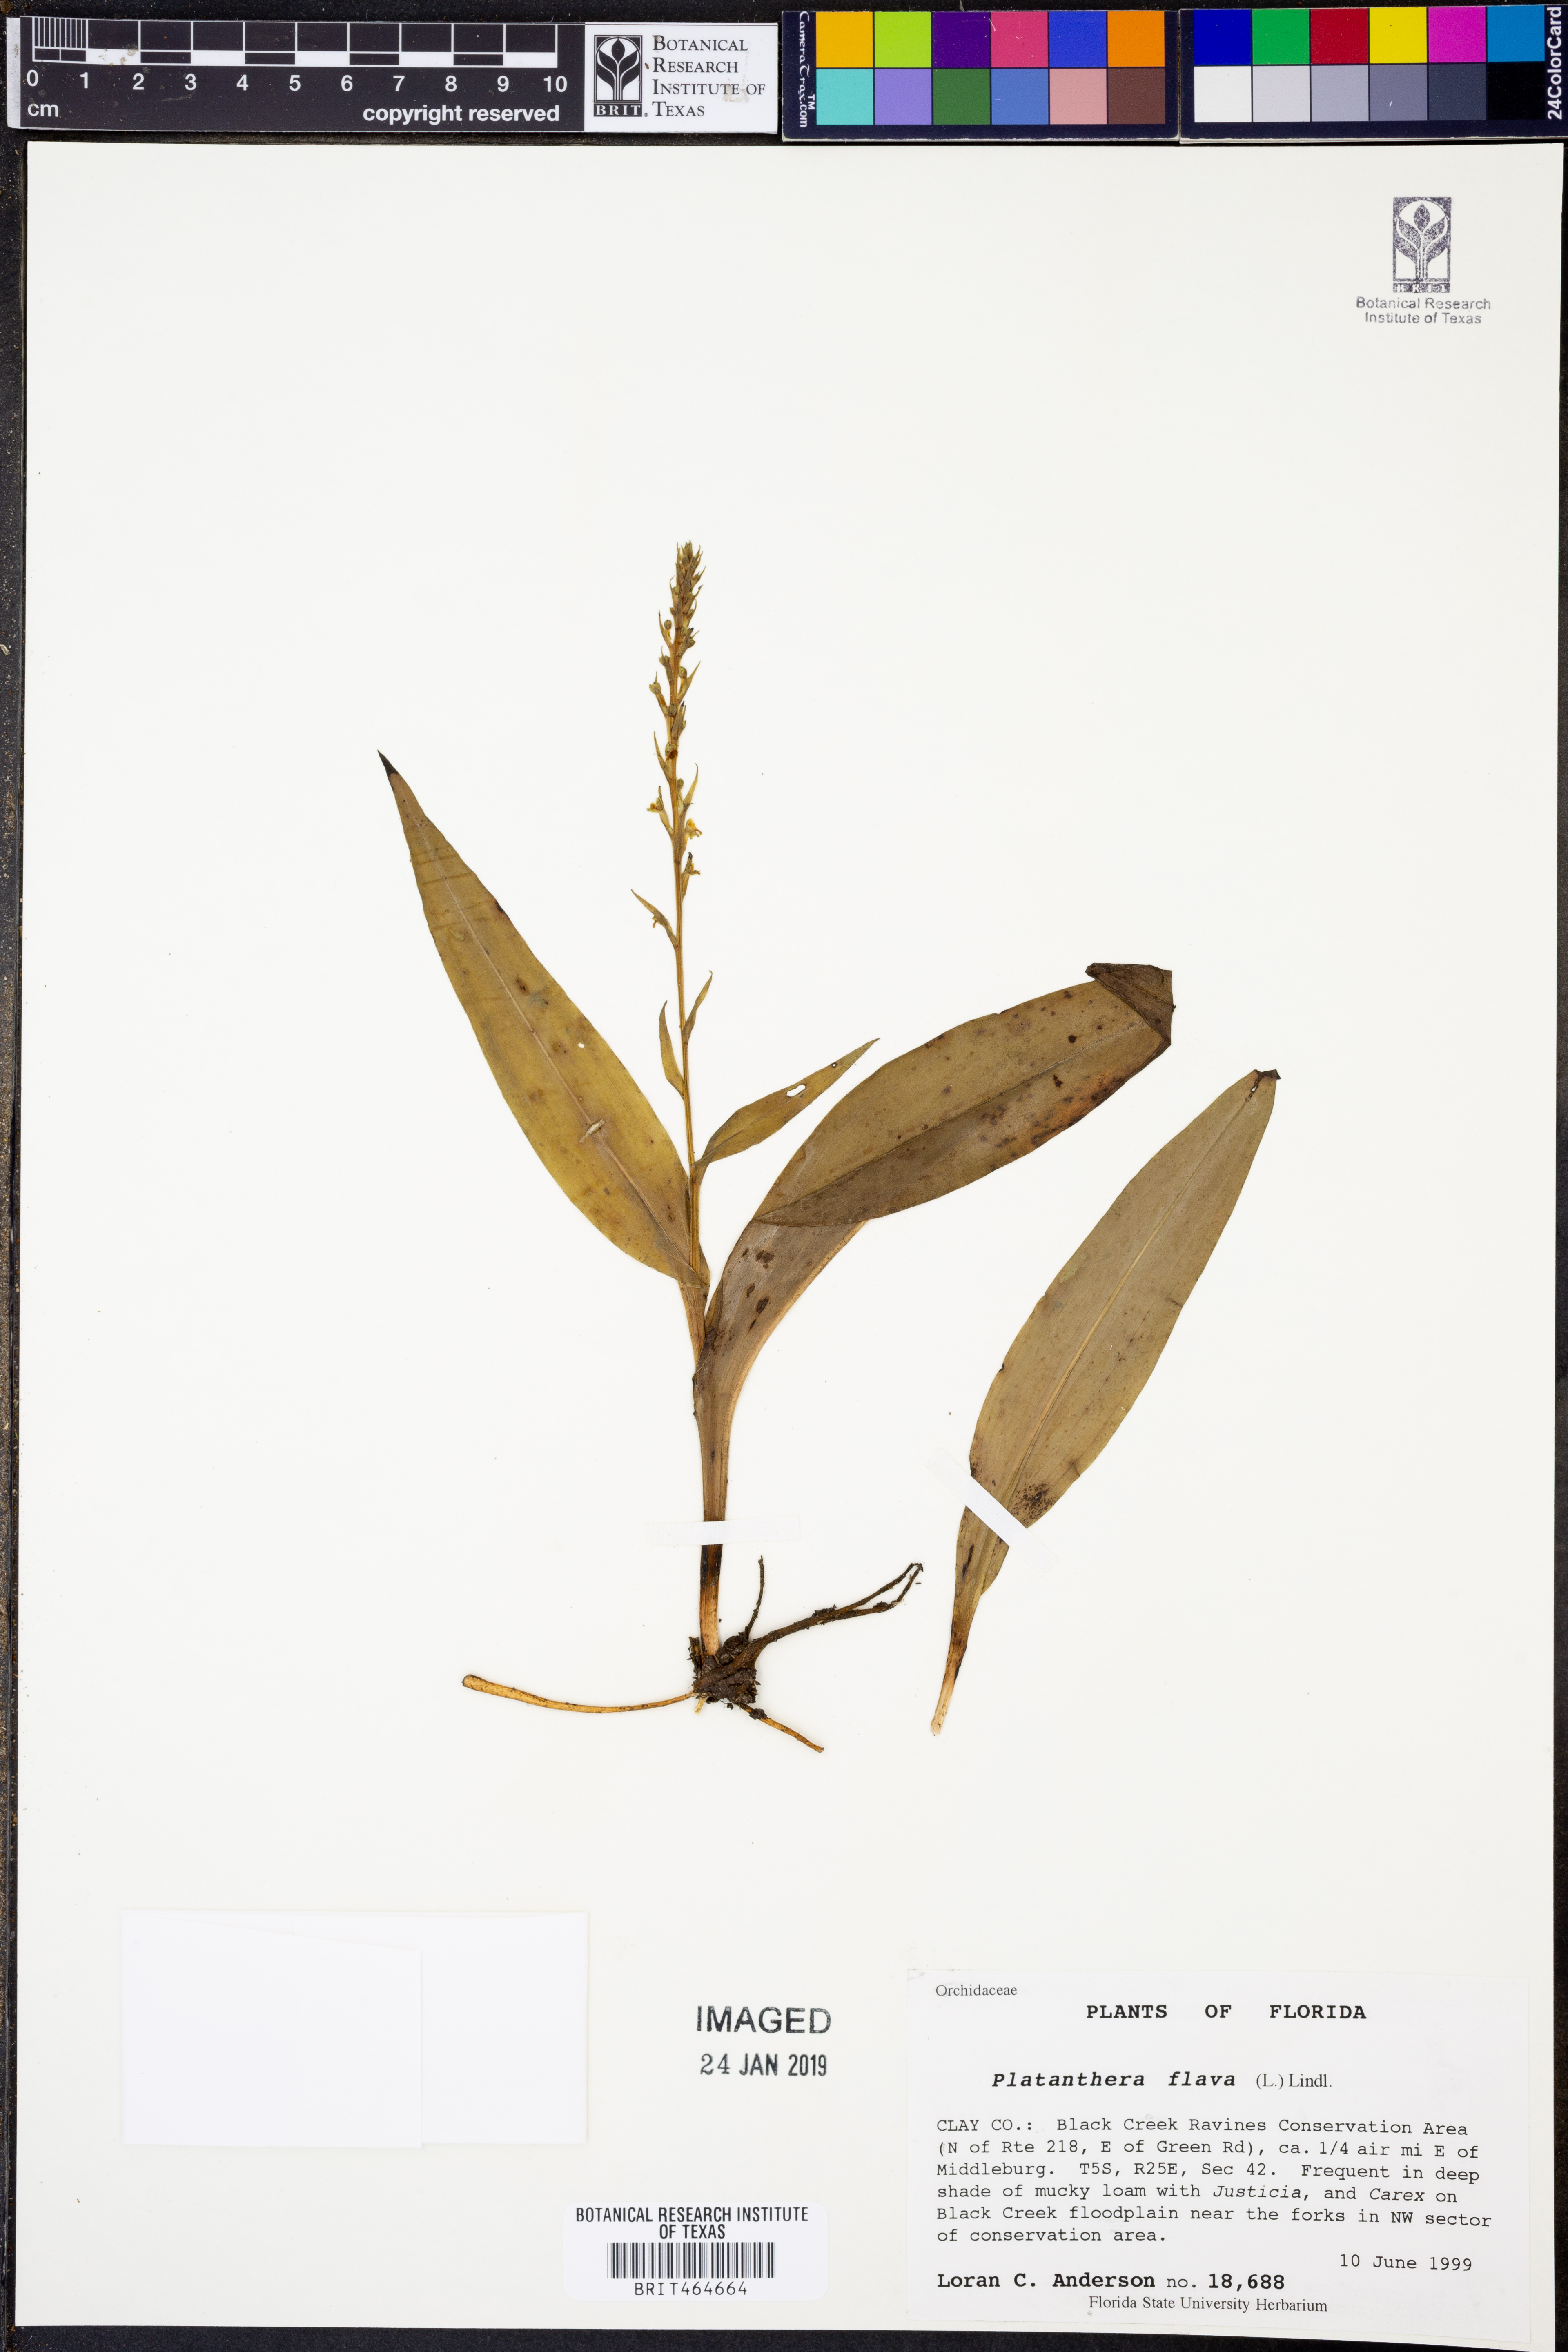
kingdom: Plantae
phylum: Tracheophyta
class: Liliopsida
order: Asparagales
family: Orchidaceae
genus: Platanthera
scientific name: Platanthera flava
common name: Gypsy-spikes
